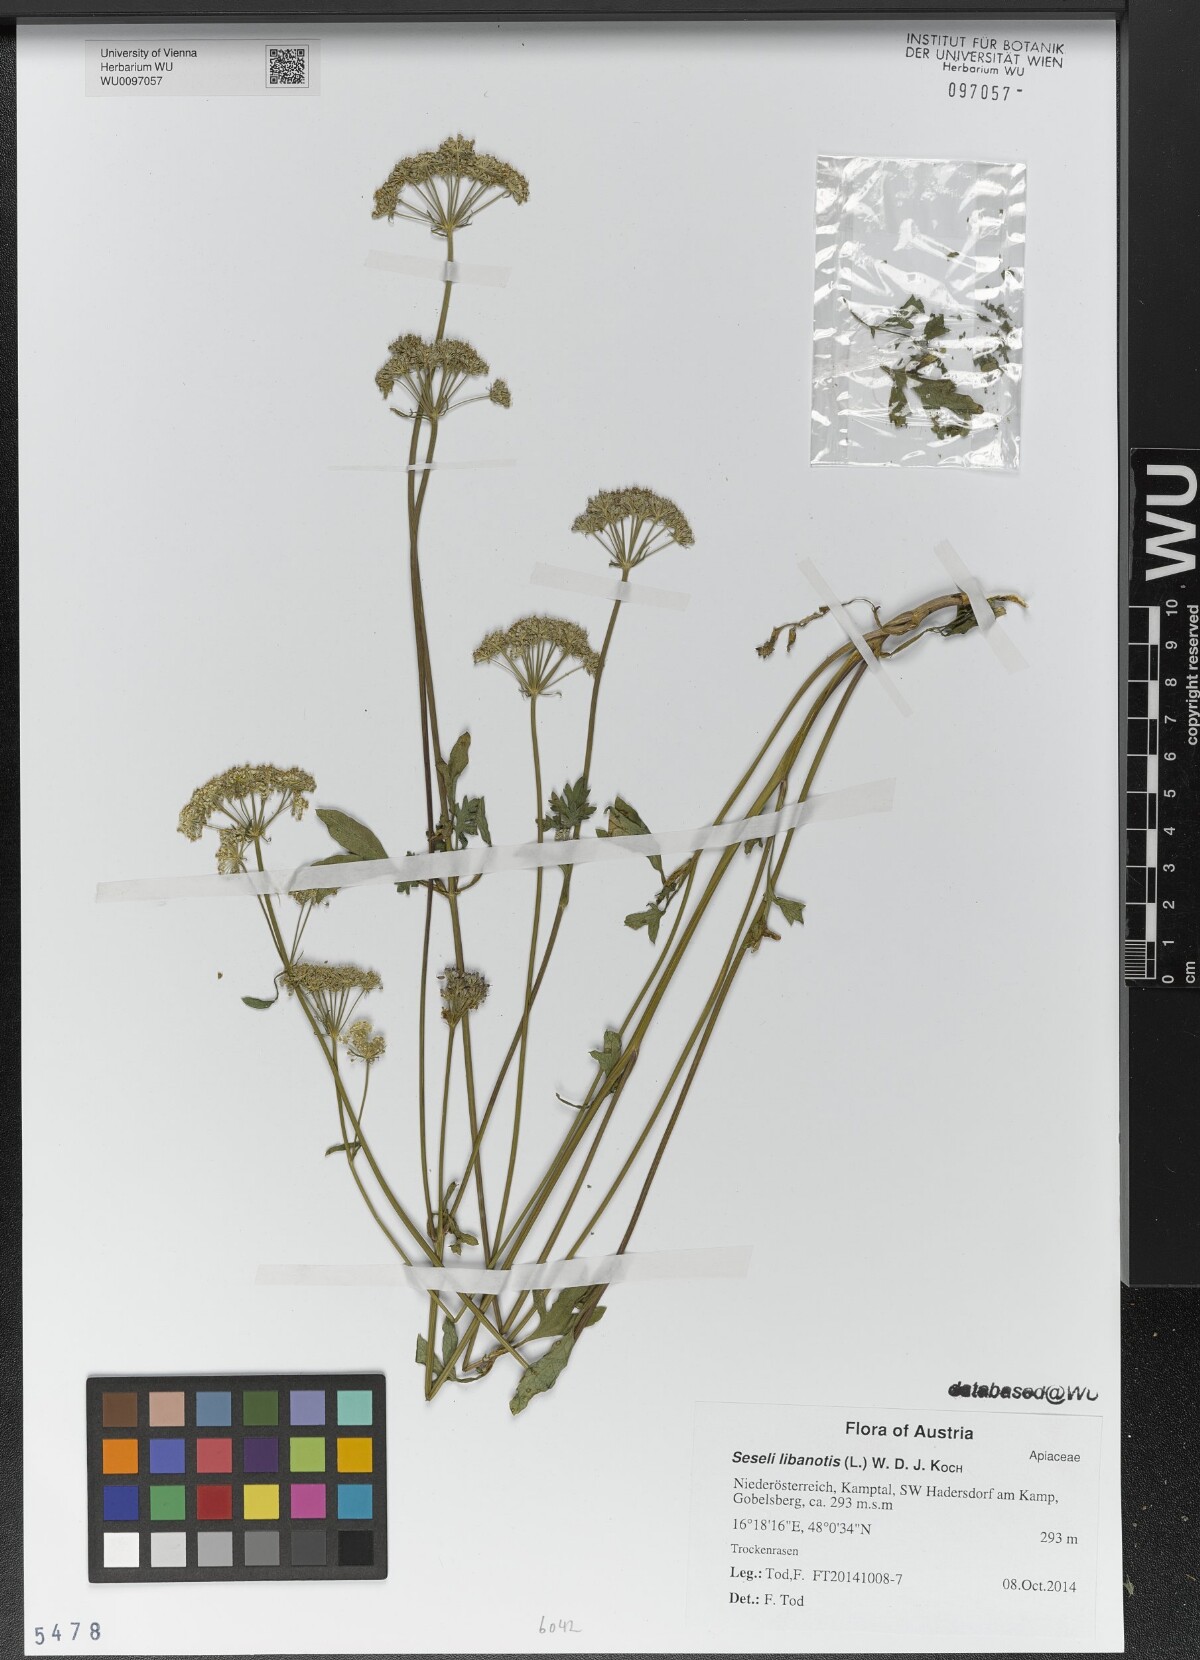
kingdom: Plantae
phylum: Tracheophyta
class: Magnoliopsida
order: Apiales
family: Apiaceae
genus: Seseli
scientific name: Seseli libanotis
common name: Mooncarrot
